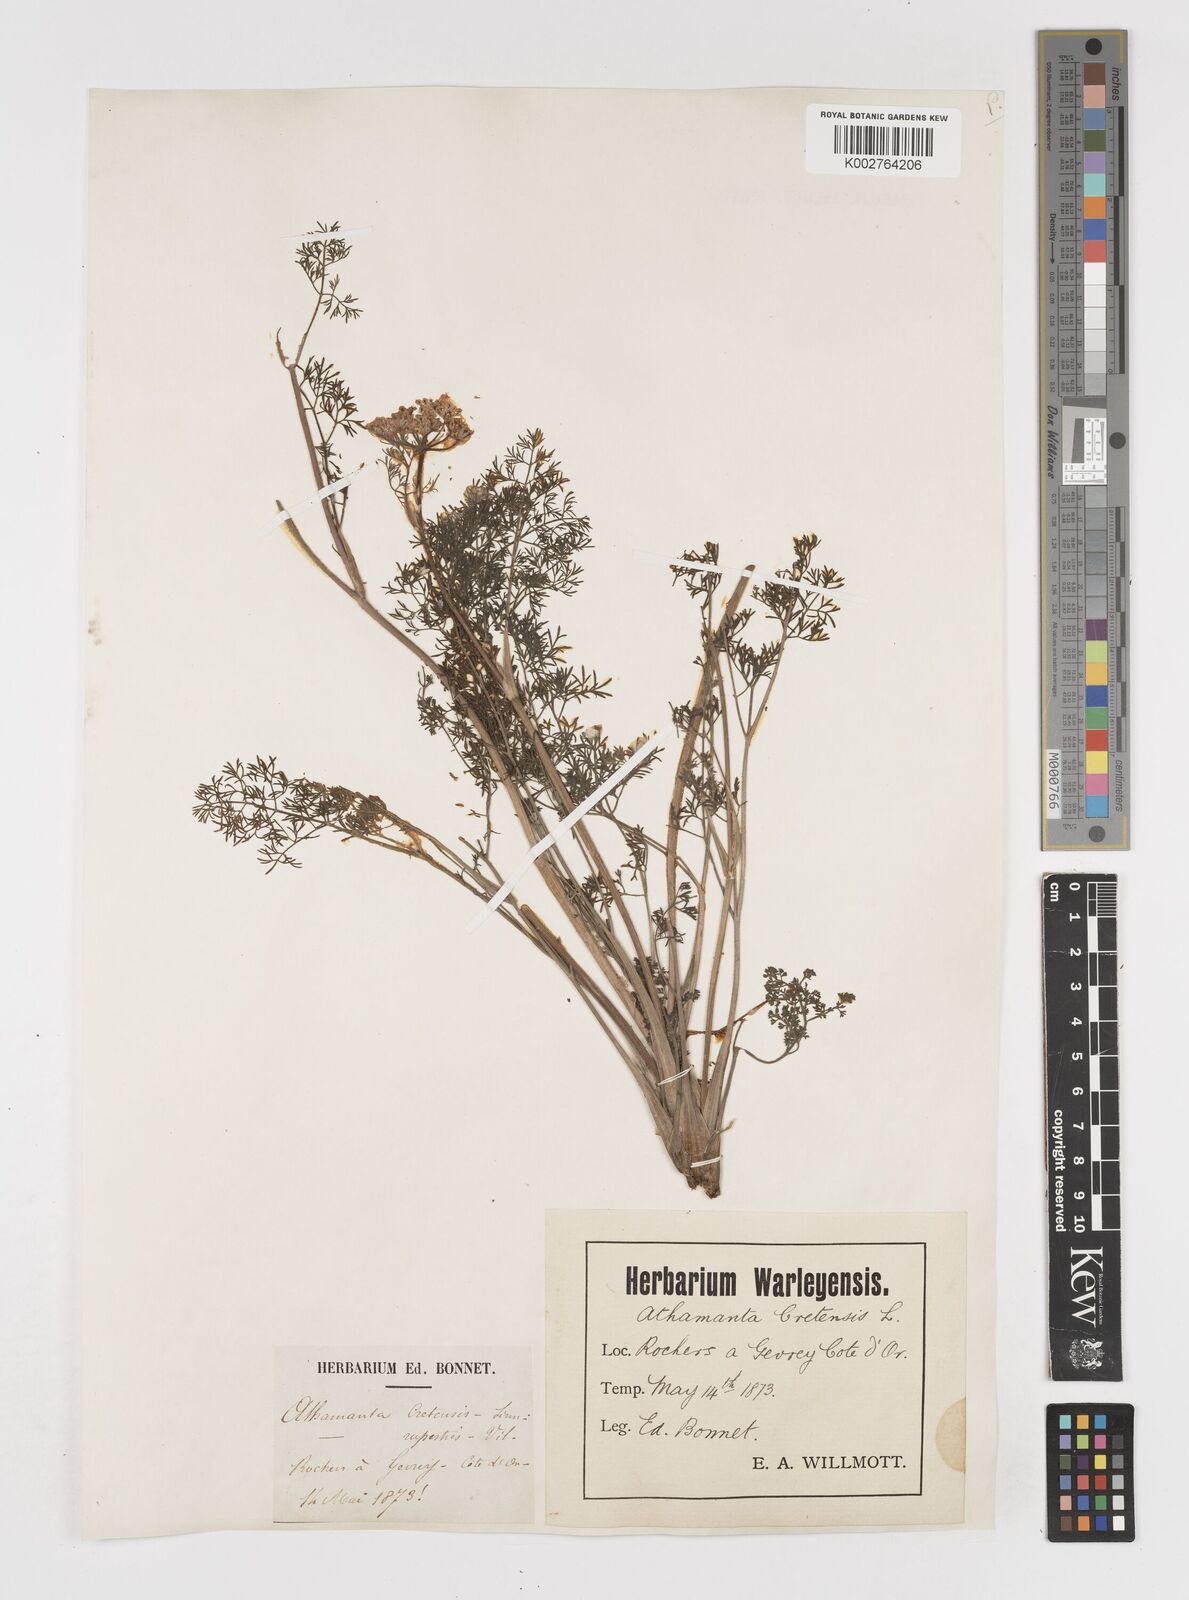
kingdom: Plantae
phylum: Tracheophyta
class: Magnoliopsida
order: Apiales
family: Apiaceae
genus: Athamanta
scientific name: Athamanta cretensis
